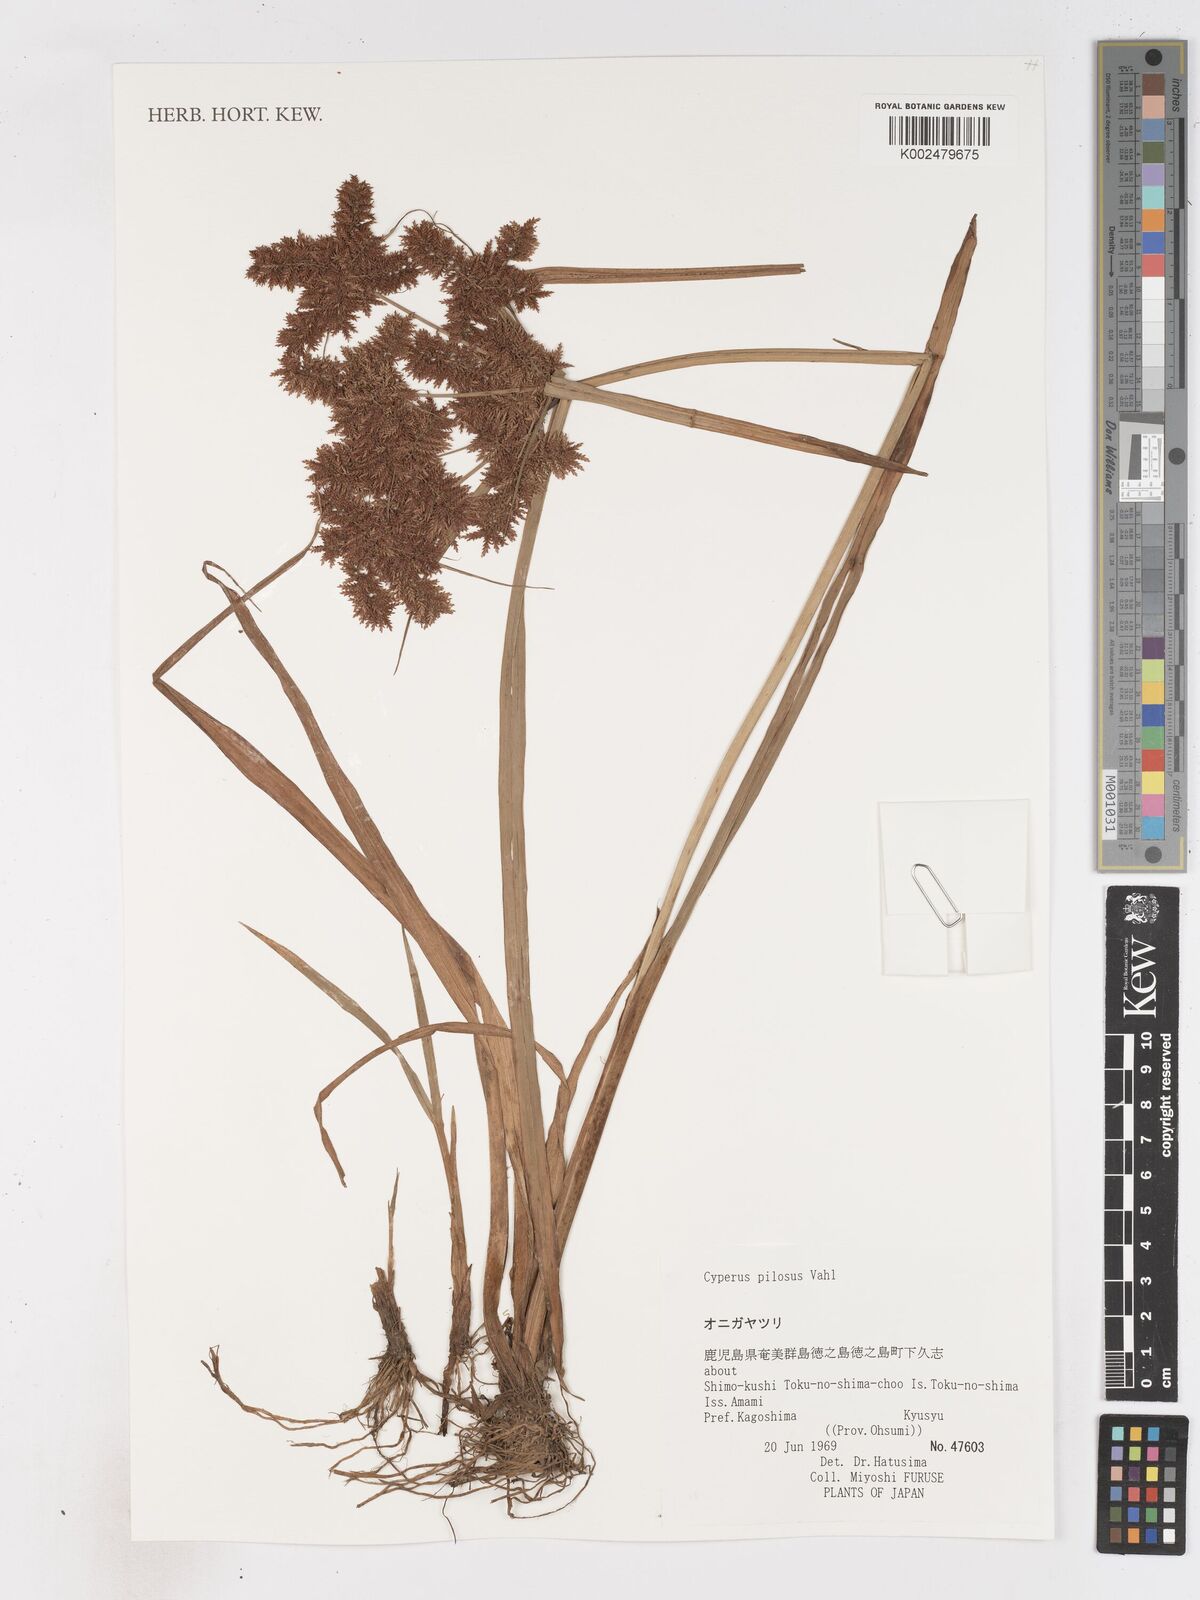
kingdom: Plantae
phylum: Tracheophyta
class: Liliopsida
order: Poales
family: Cyperaceae
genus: Cyperus
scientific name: Cyperus pilosus
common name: Fuzzy flatsedge
